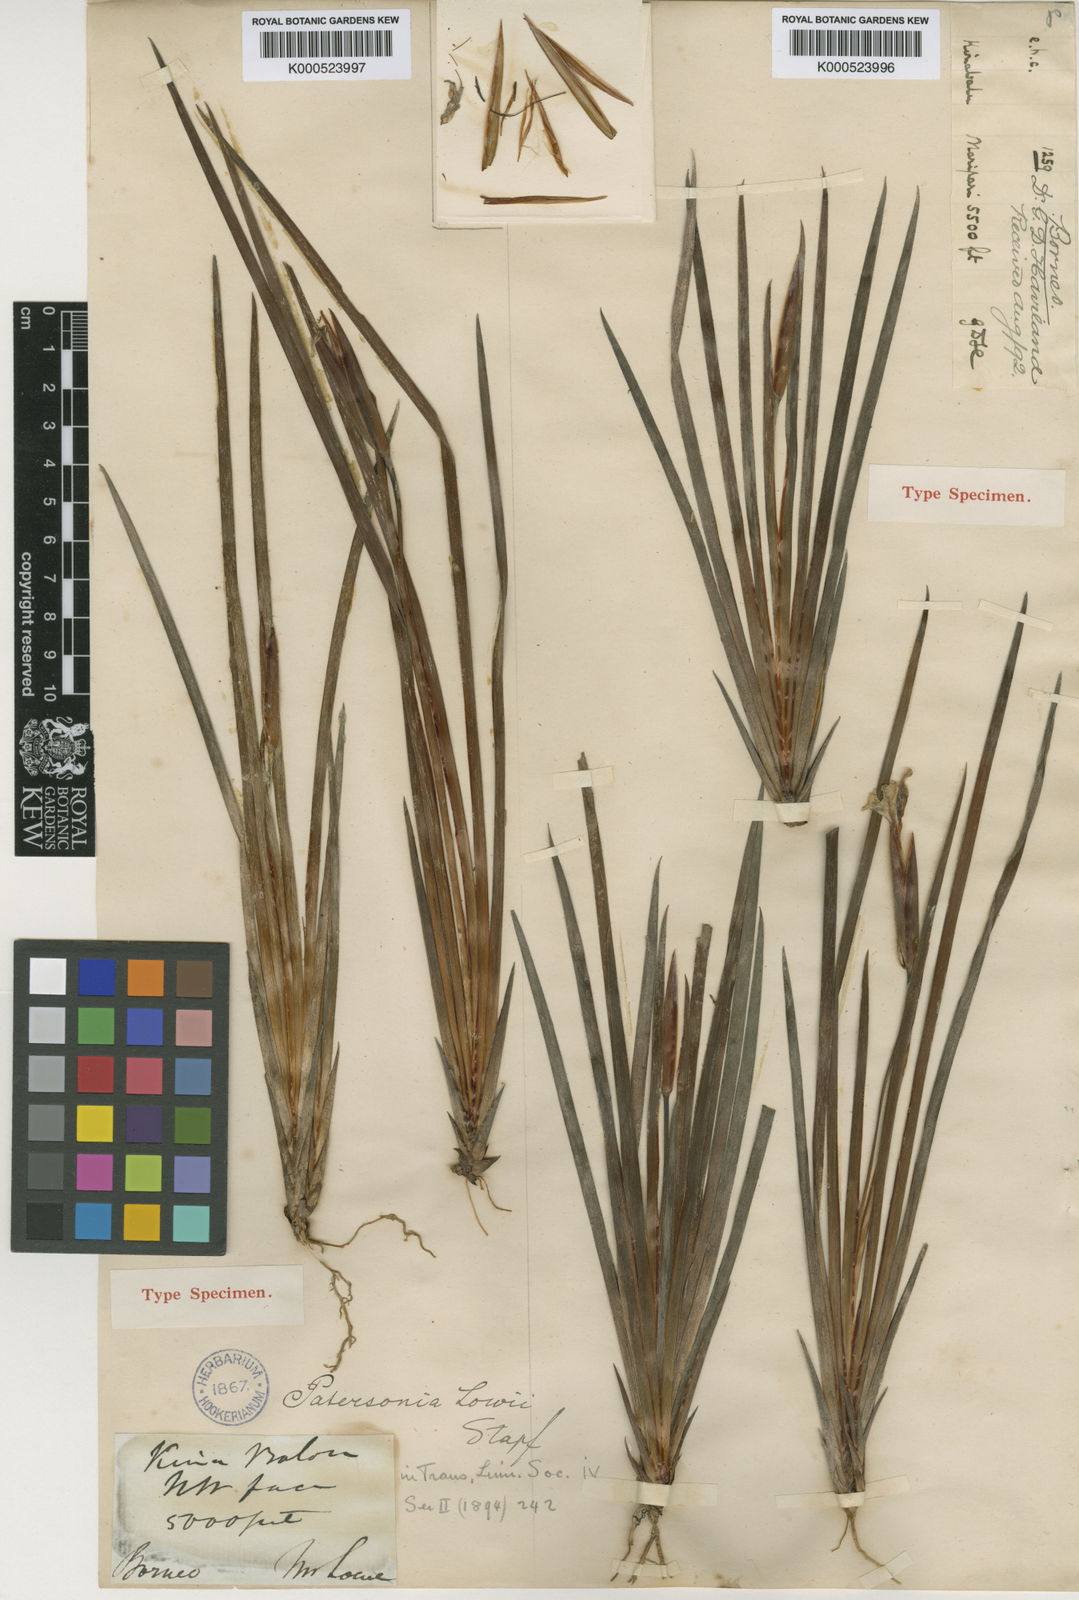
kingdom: Plantae
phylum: Tracheophyta
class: Liliopsida
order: Asparagales
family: Iridaceae
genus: Patersonia
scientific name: Patersonia lowii
